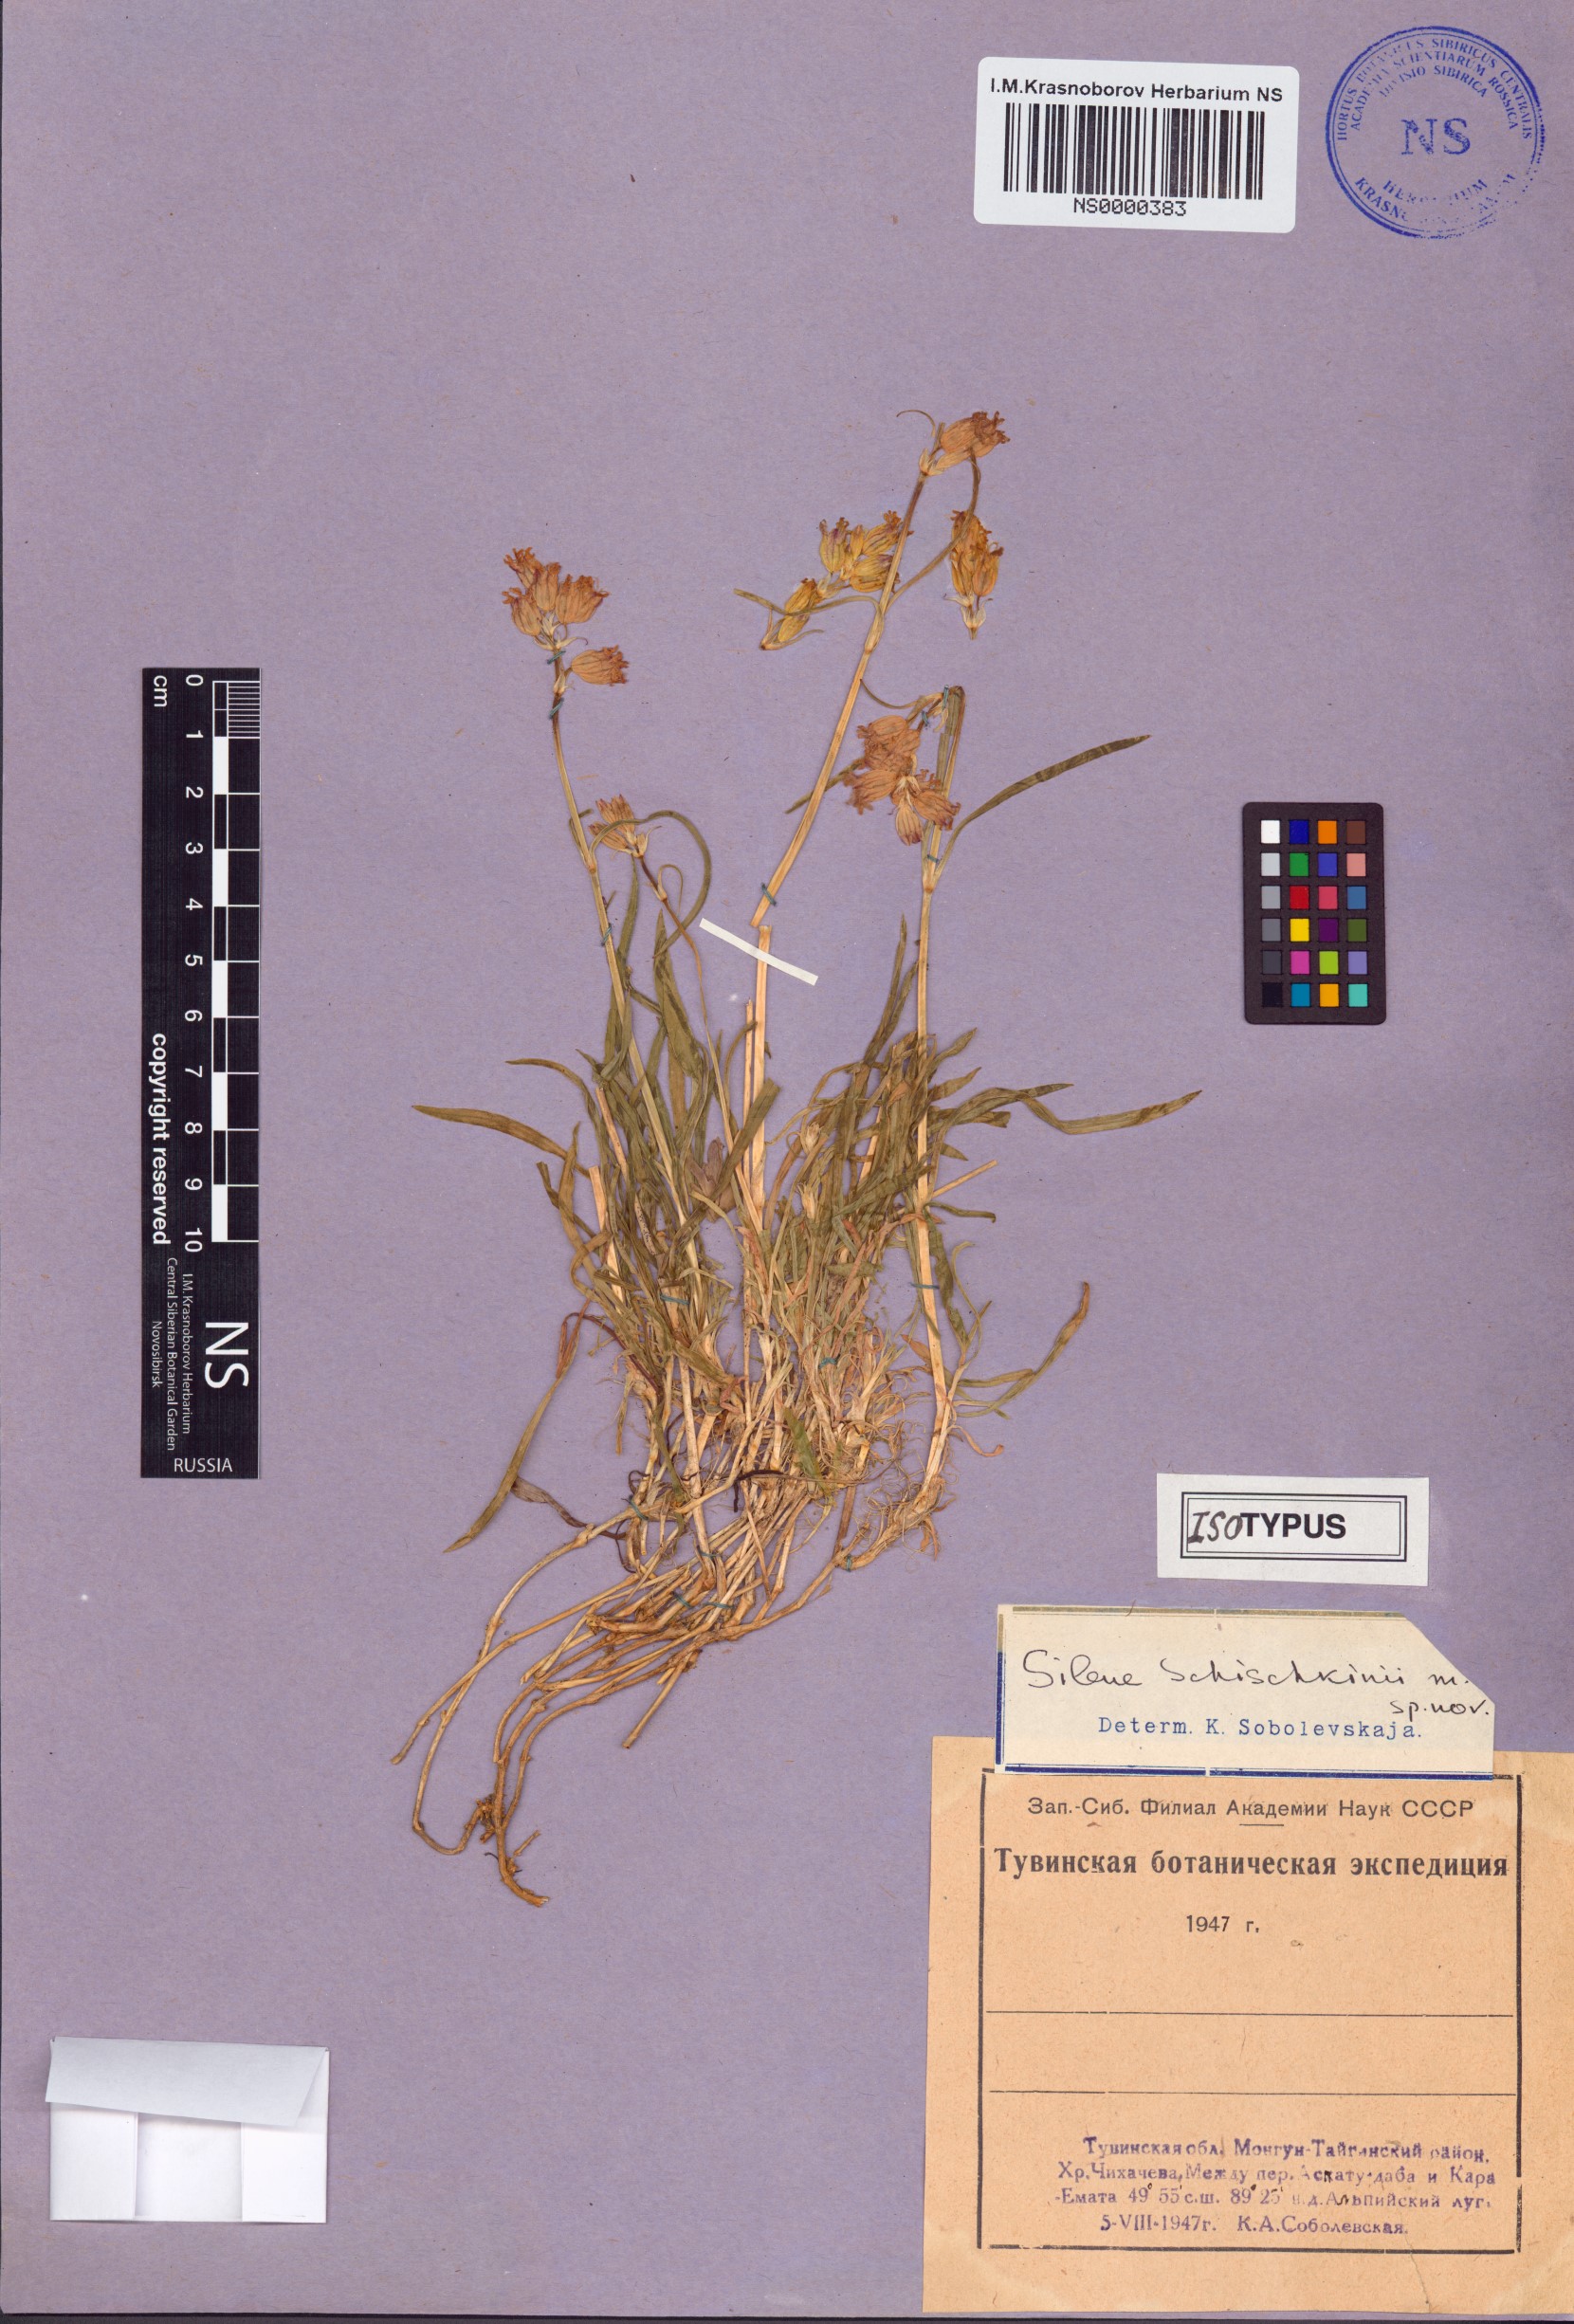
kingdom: Plantae
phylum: Tracheophyta
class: Magnoliopsida
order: Caryophyllales
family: Caryophyllaceae
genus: Silene
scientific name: Silene schischkinii
